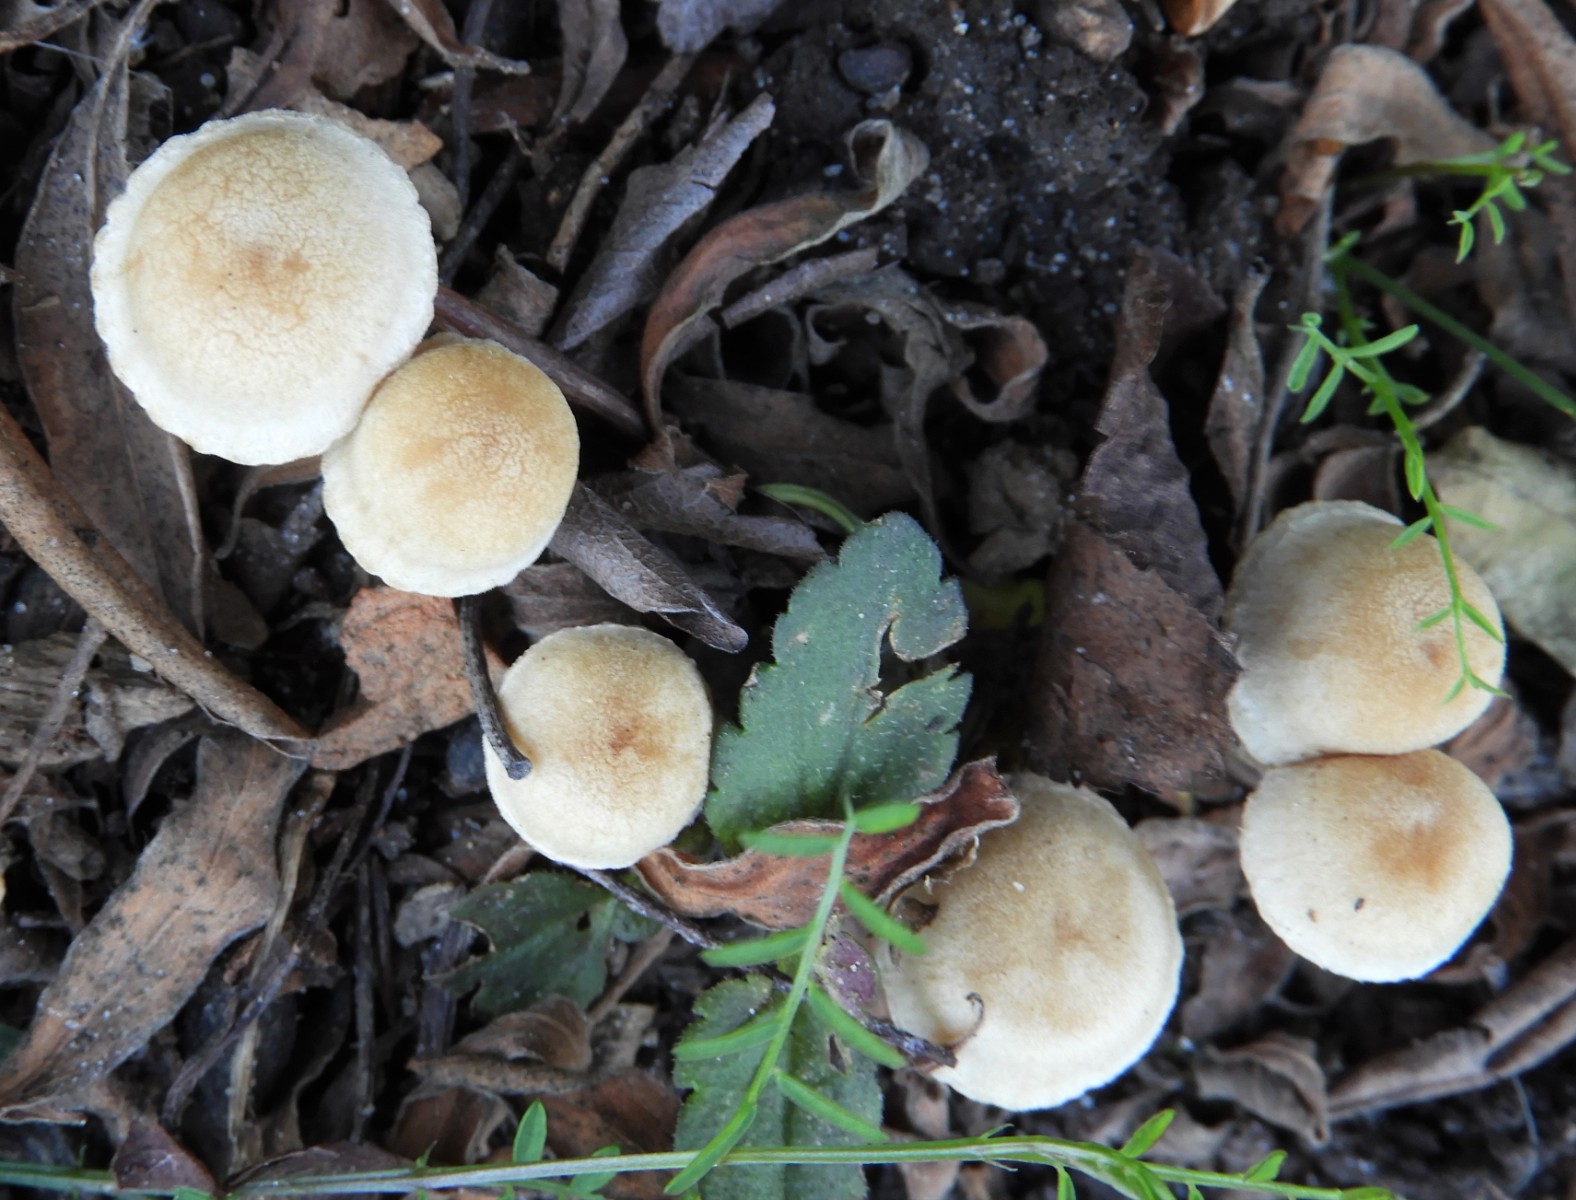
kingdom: Fungi
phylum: Basidiomycota
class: Agaricomycetes
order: Agaricales
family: Tubariaceae
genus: Tubaria
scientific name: Tubaria dispersa
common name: tjørne-fnughat
